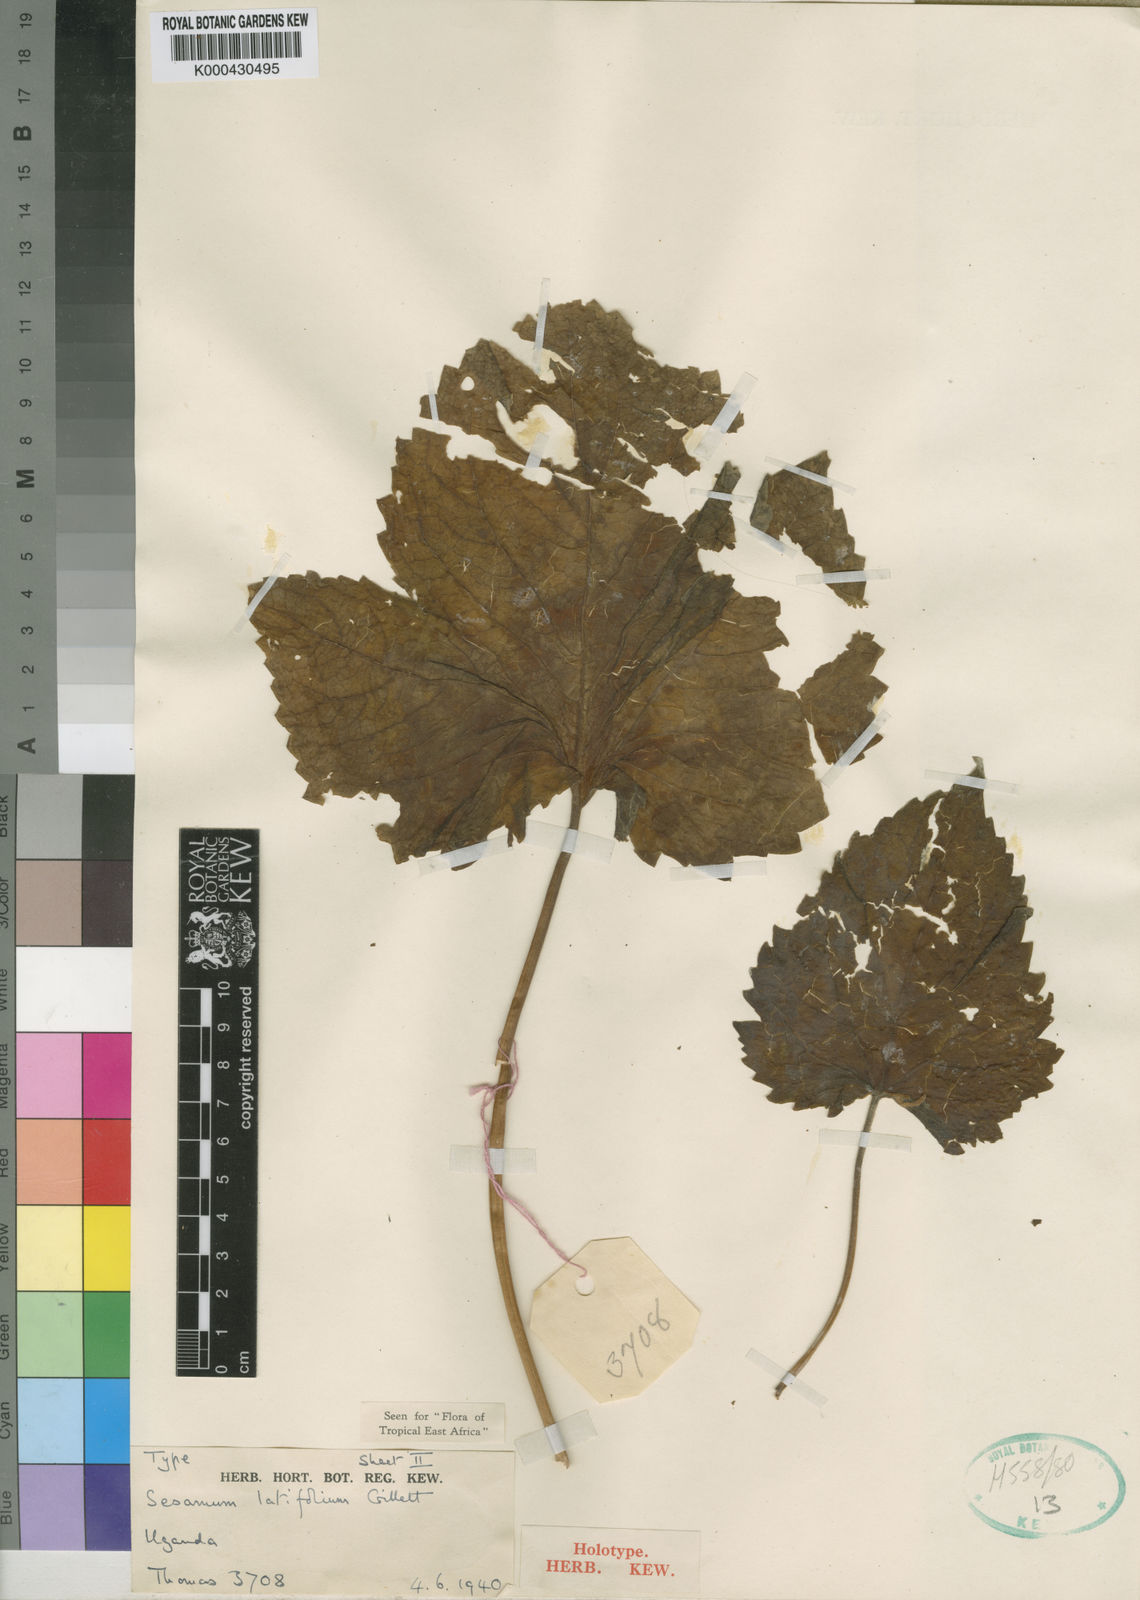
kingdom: Plantae
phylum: Tracheophyta
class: Magnoliopsida
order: Lamiales
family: Pedaliaceae
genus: Sesamum
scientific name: Sesamum latifolium
